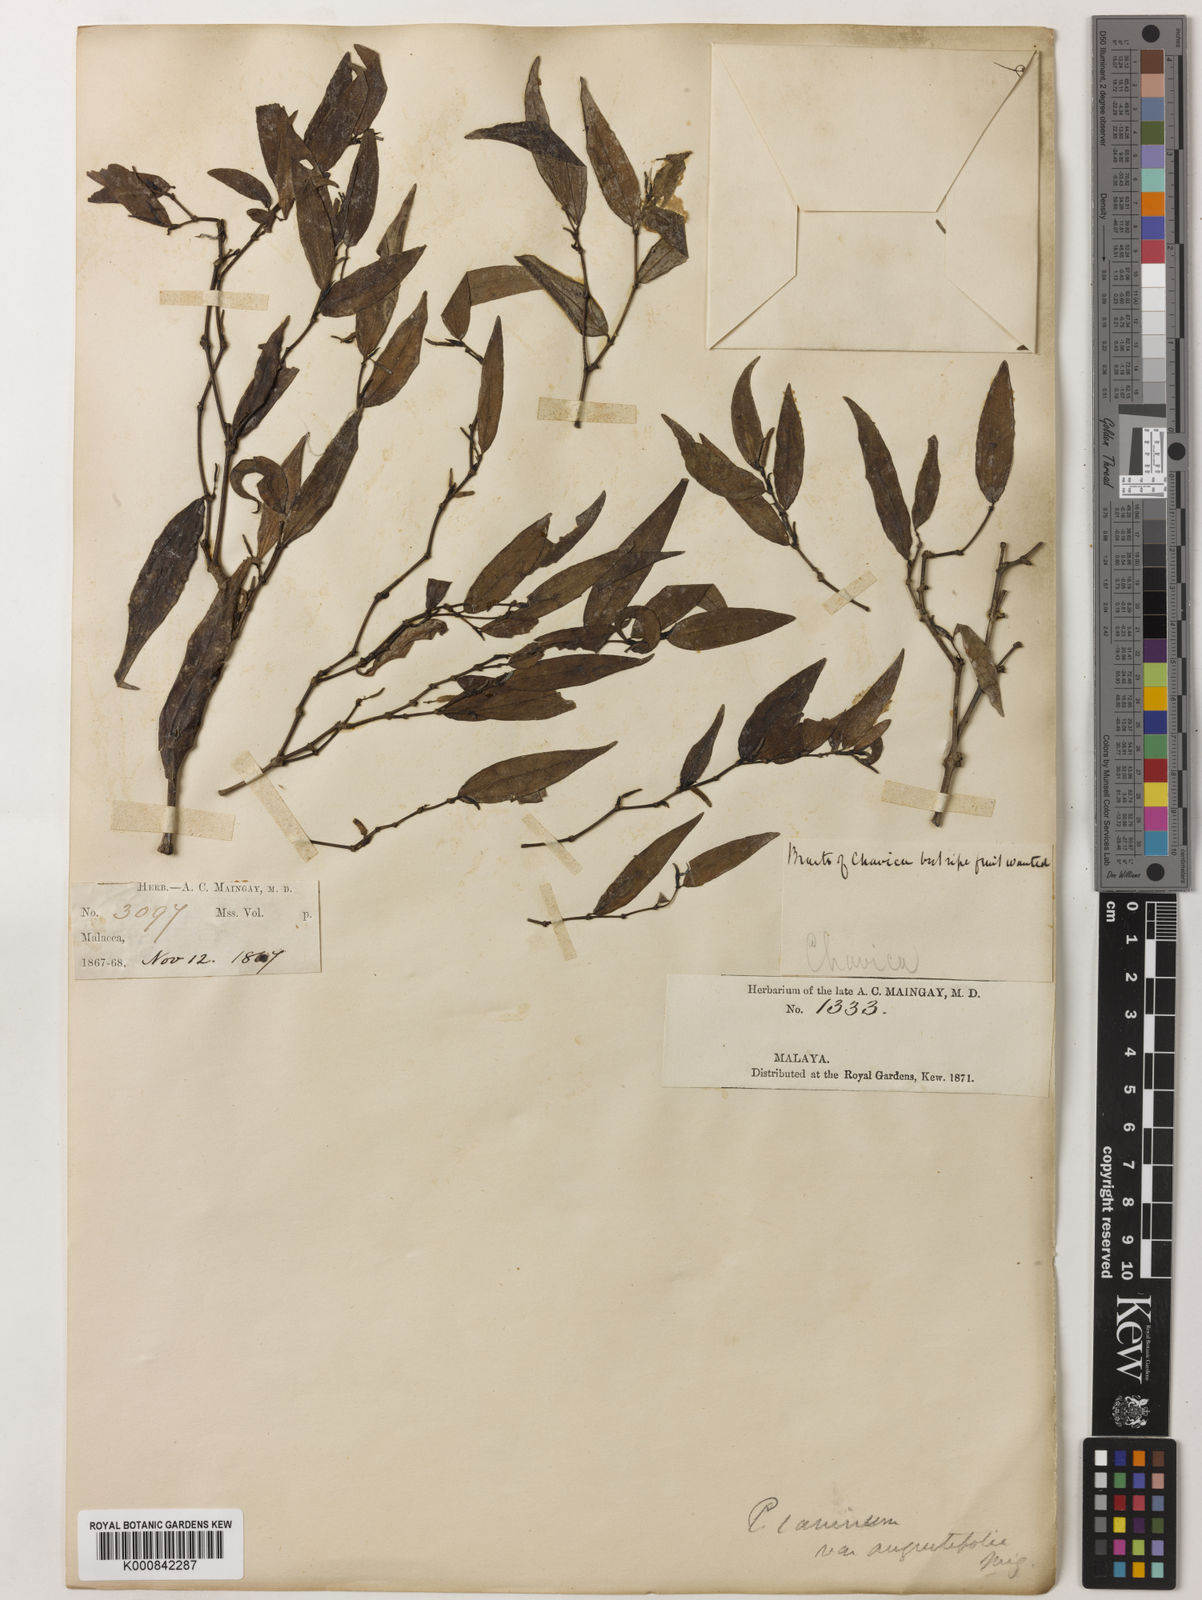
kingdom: Plantae
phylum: Tracheophyta
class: Magnoliopsida
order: Piperales
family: Piperaceae
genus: Piper
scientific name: Piper lanatum
